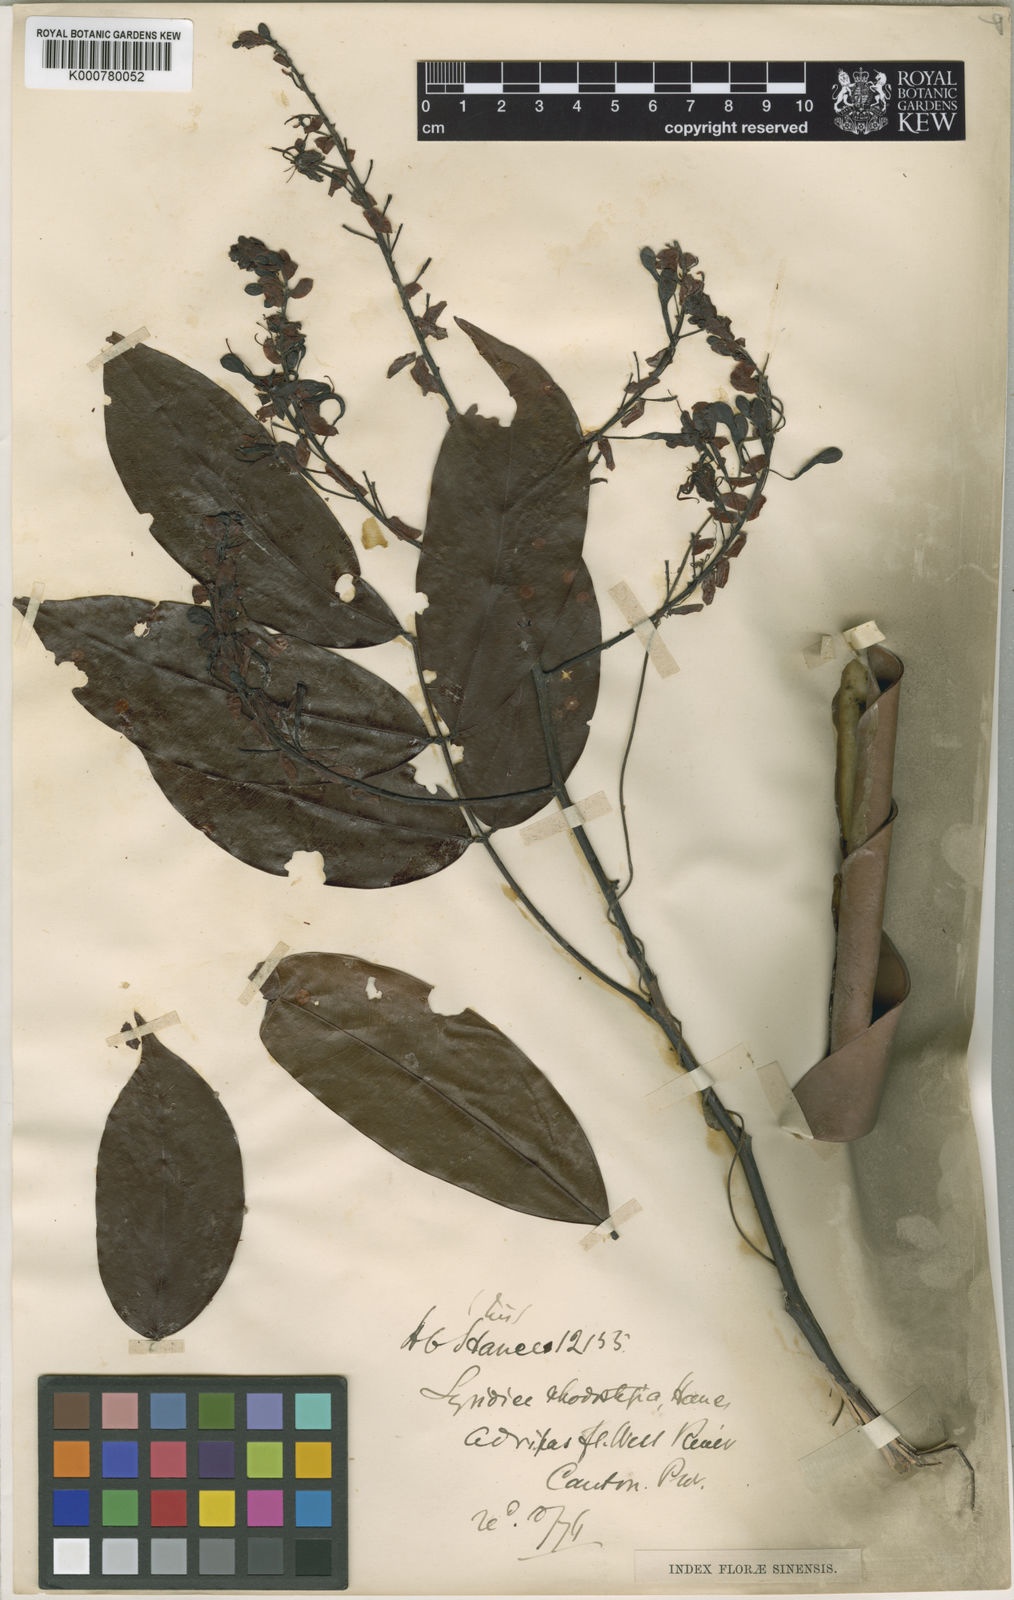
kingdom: Plantae
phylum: Tracheophyta
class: Magnoliopsida
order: Fabales
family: Fabaceae
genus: Lysidice
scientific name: Lysidice rhodostegia
